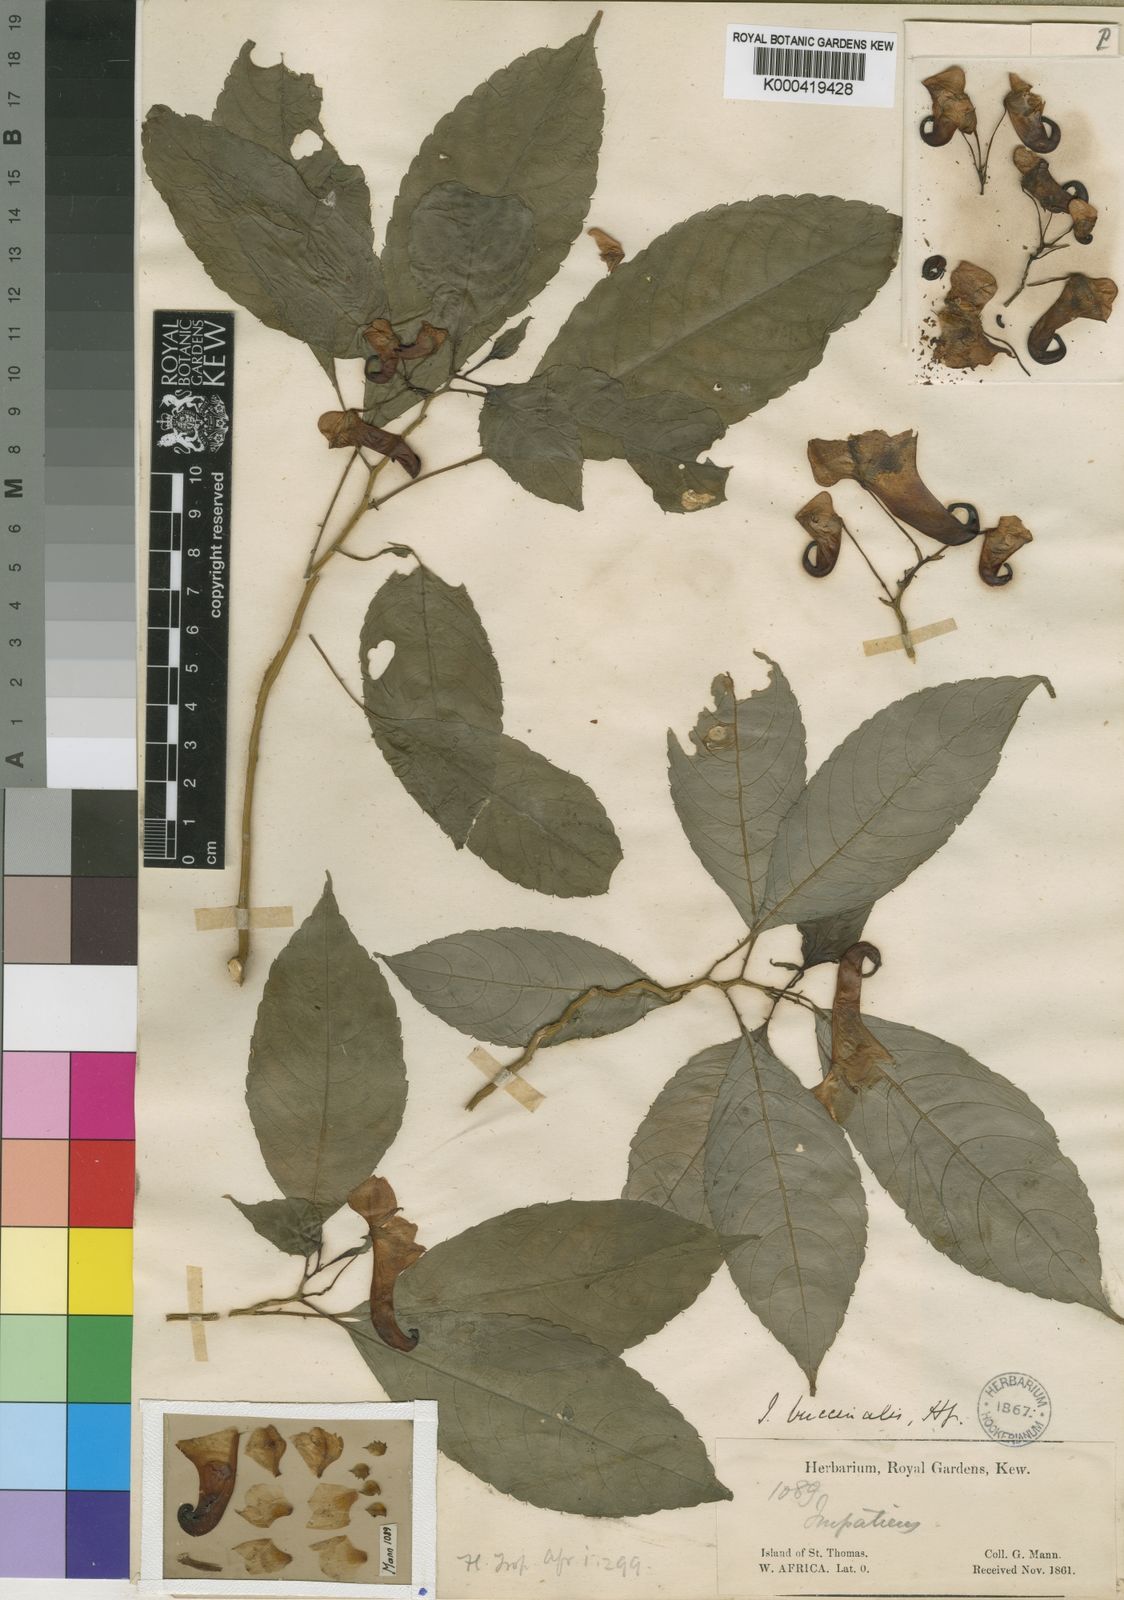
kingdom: Plantae
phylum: Tracheophyta
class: Magnoliopsida
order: Ericales
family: Balsaminaceae
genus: Impatiens
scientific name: Impatiens buccinalis
